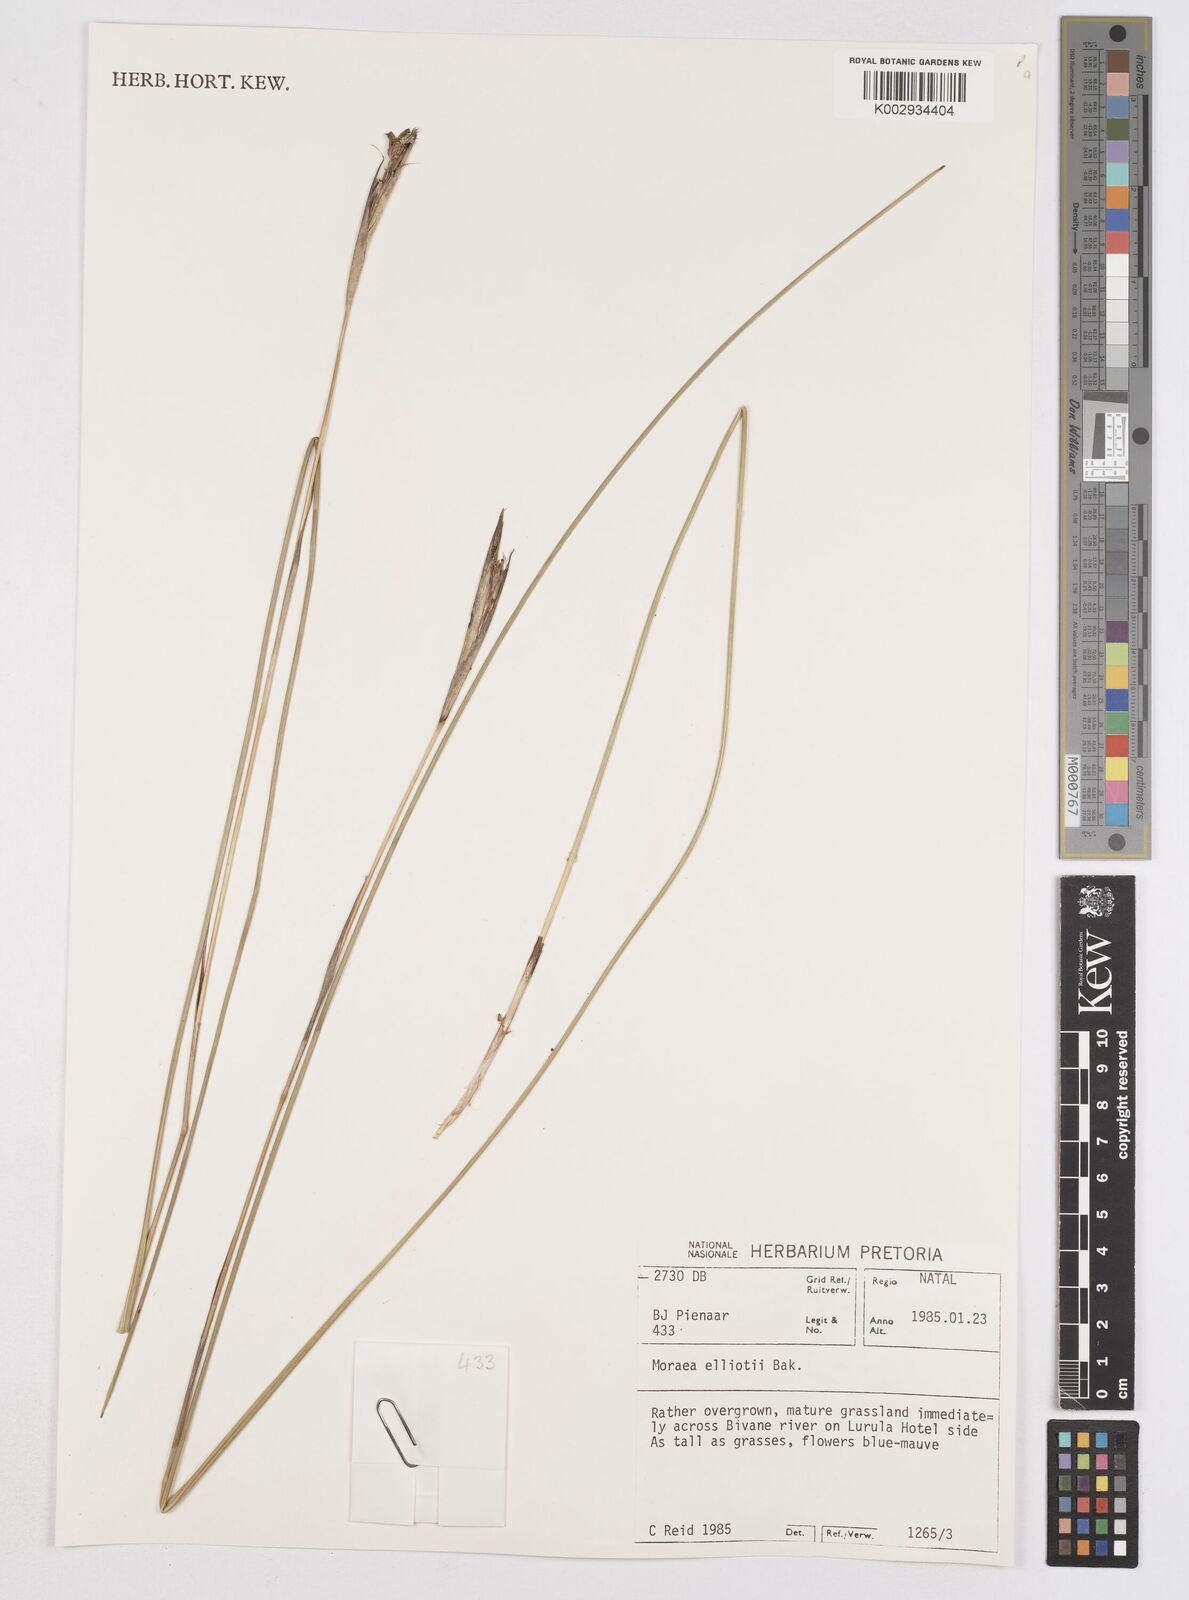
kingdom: Plantae
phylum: Tracheophyta
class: Liliopsida
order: Asparagales
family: Iridaceae
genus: Moraea
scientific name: Moraea elliotii
